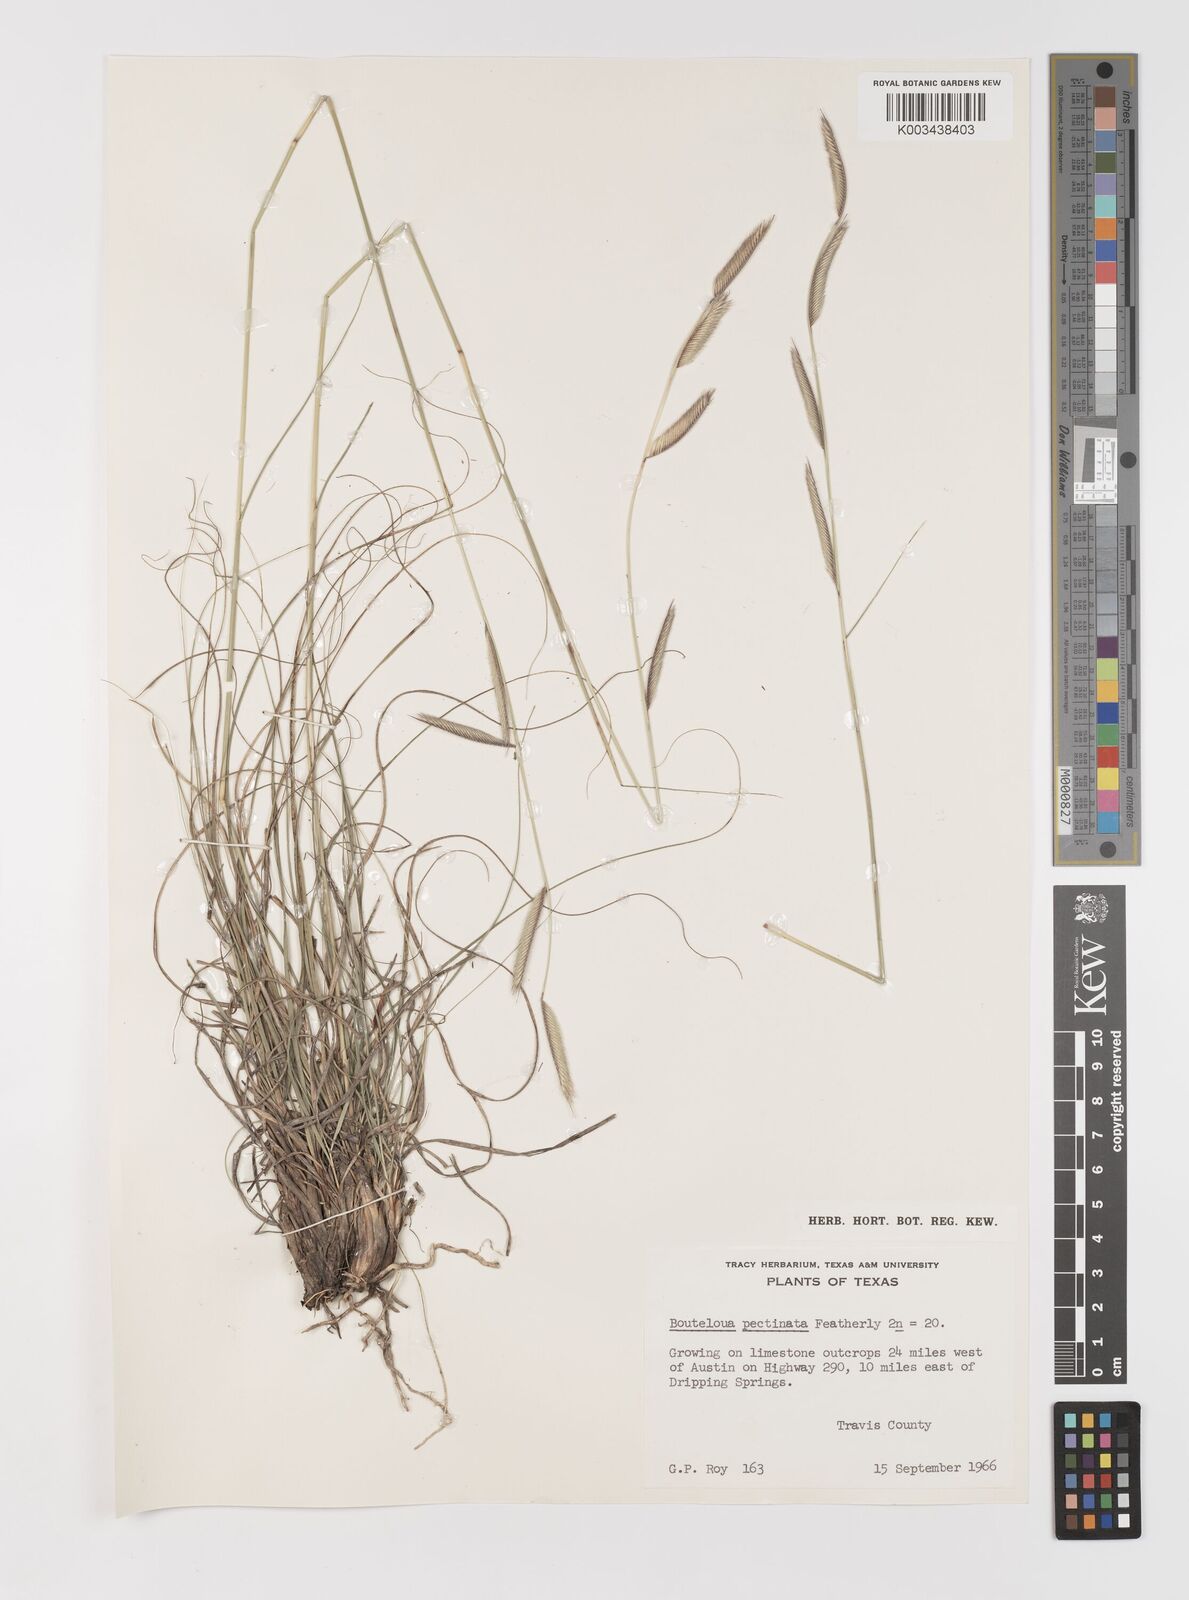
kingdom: Plantae
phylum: Tracheophyta
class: Liliopsida
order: Poales
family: Poaceae
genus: Bouteloua
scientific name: Bouteloua pectinata
